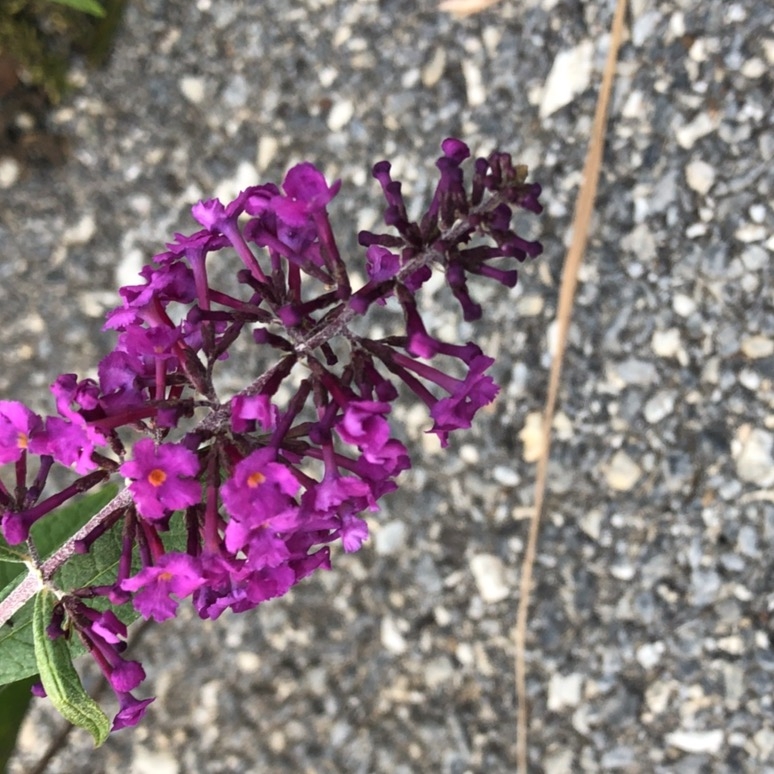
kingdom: Plantae
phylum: Tracheophyta
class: Magnoliopsida
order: Lamiales
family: Scrophulariaceae
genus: Buddleja
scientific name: Buddleja davidii
